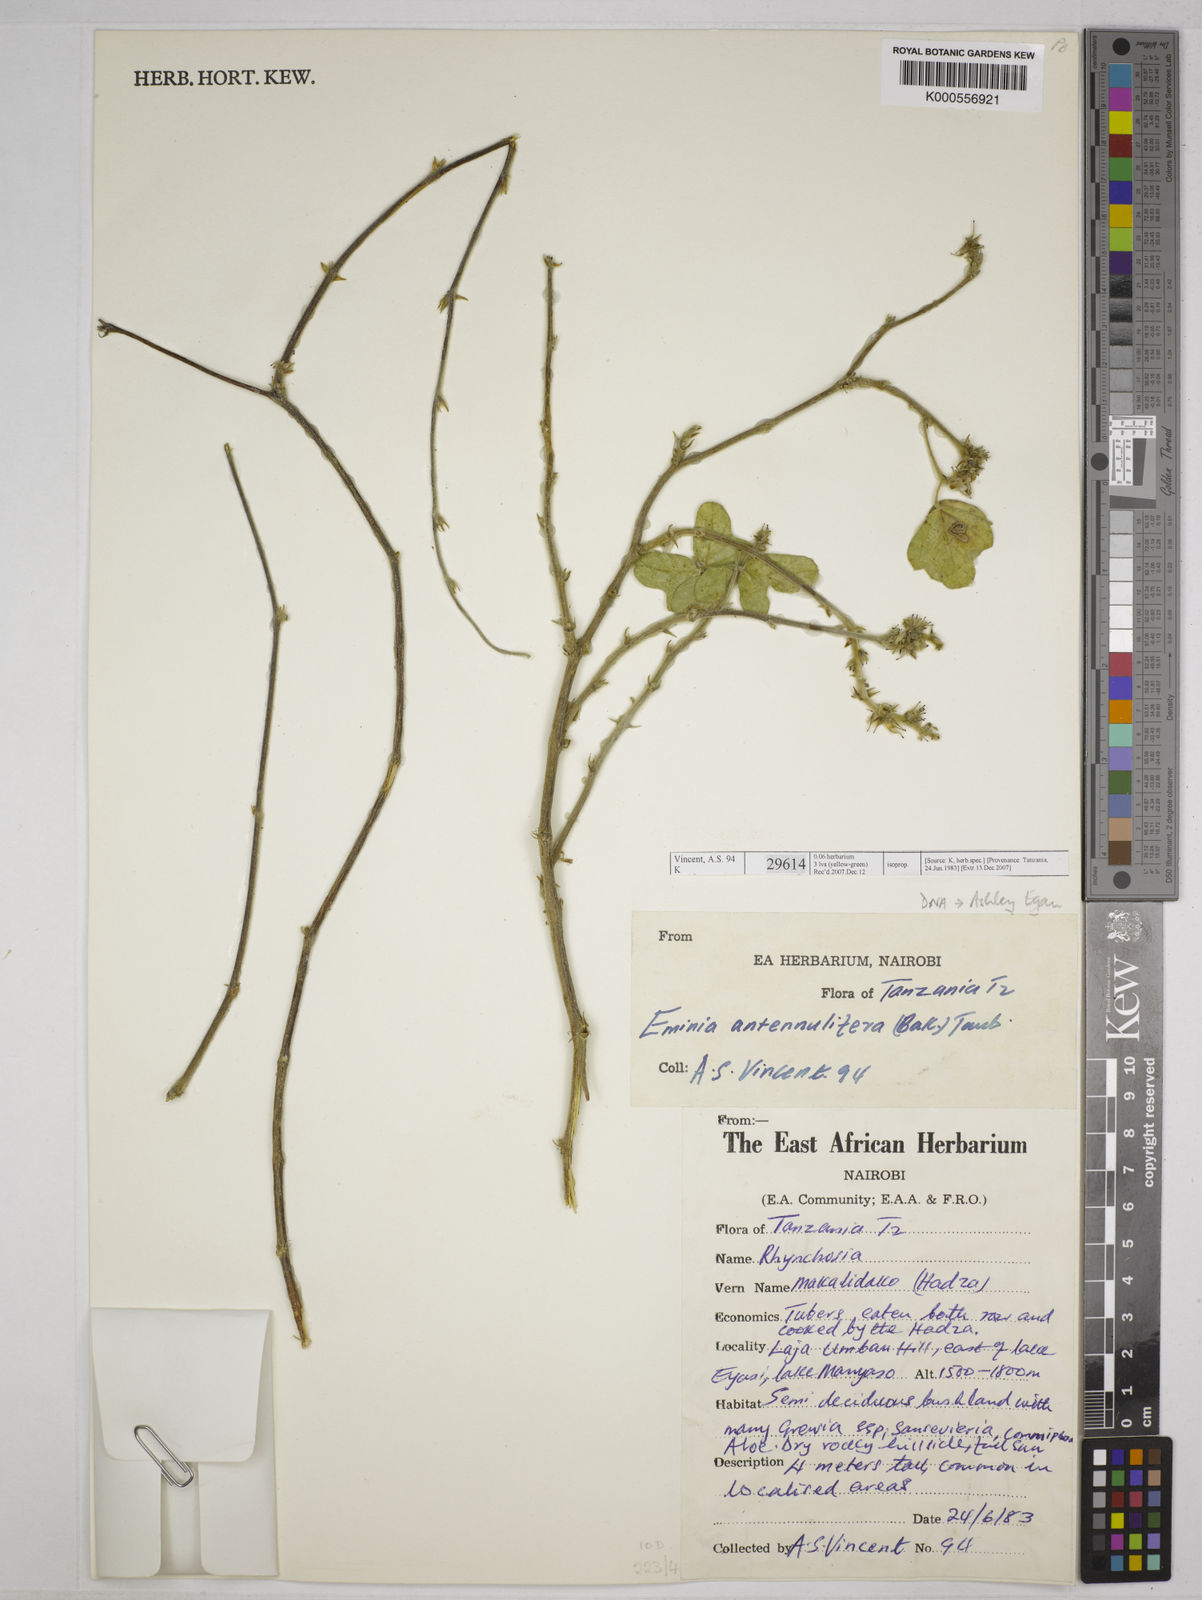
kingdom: Plantae
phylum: Tracheophyta
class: Magnoliopsida
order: Fabales
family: Fabaceae
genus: Eminia
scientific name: Eminia antennulifera
